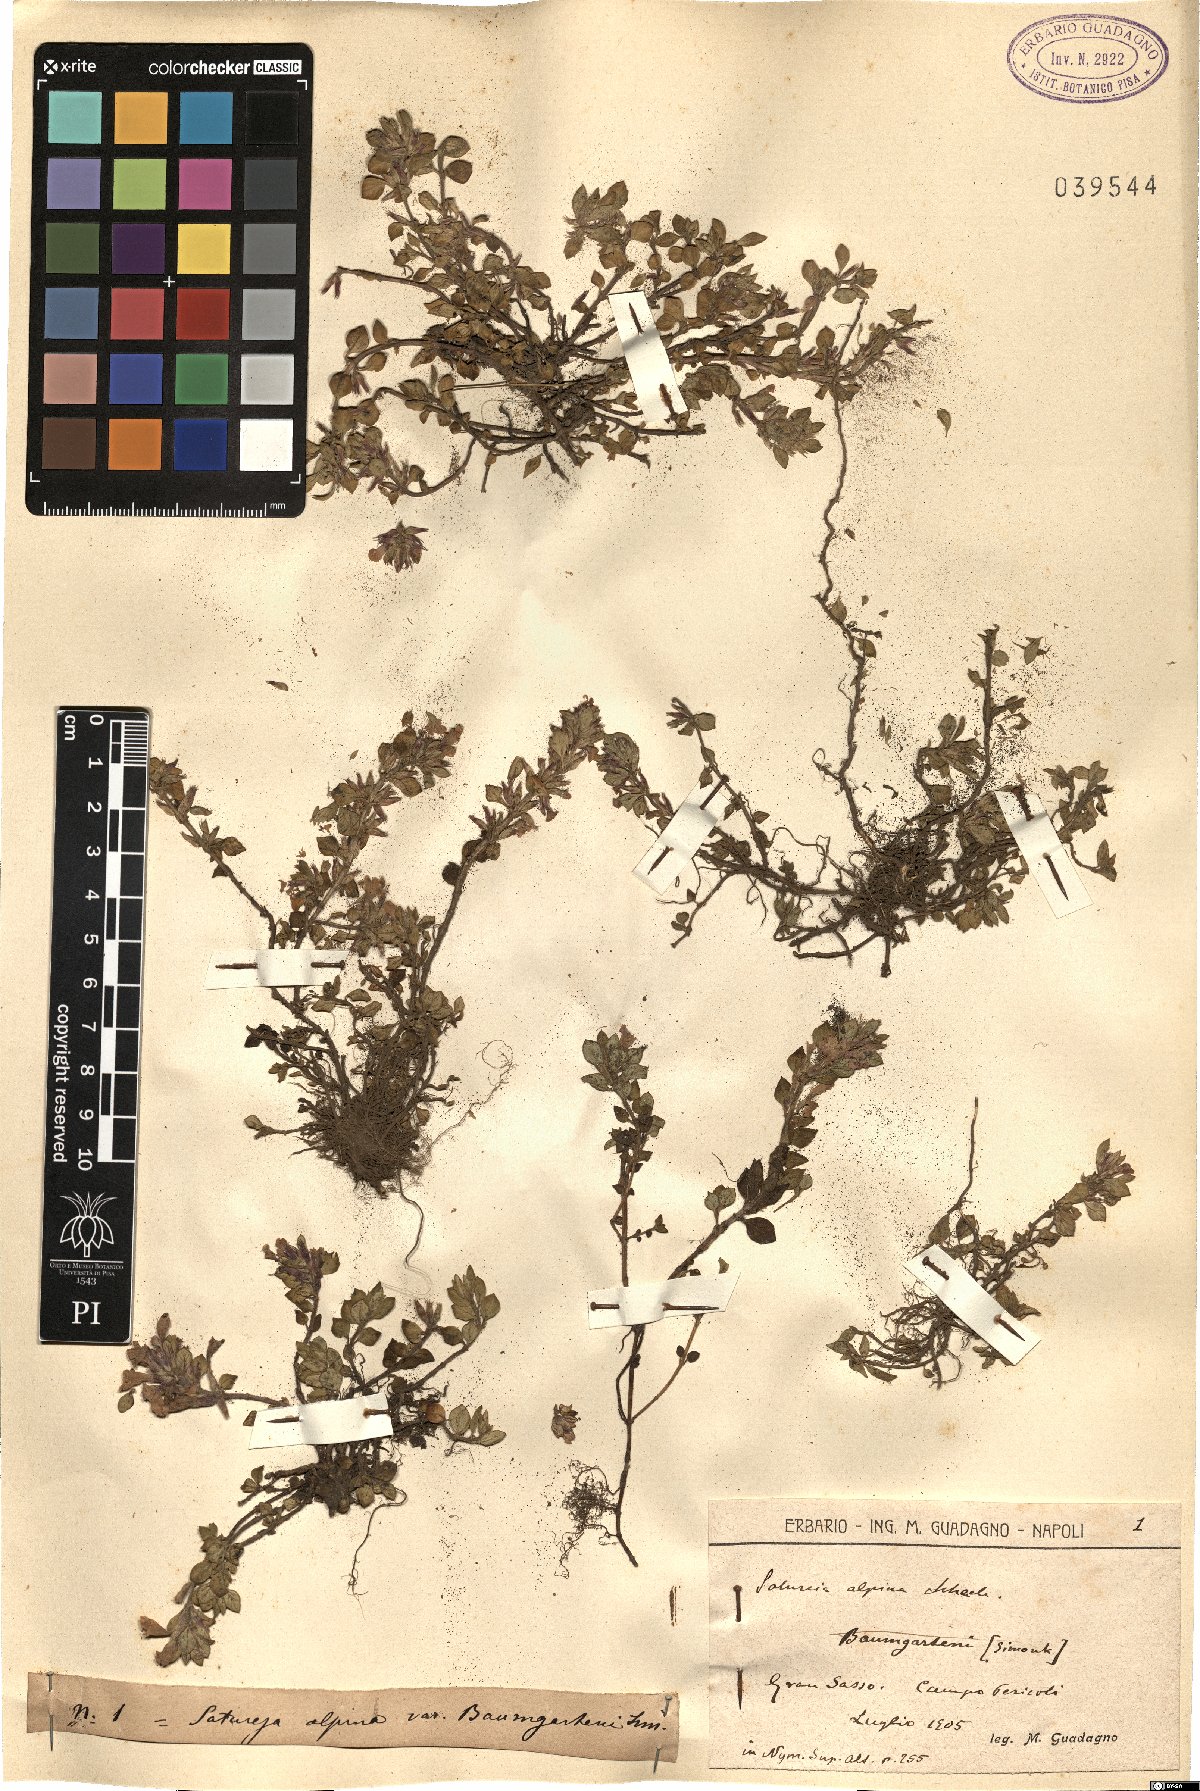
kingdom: Plantae
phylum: Tracheophyta
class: Magnoliopsida
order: Lamiales
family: Lamiaceae
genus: Clinopodium
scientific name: Clinopodium alpinum
